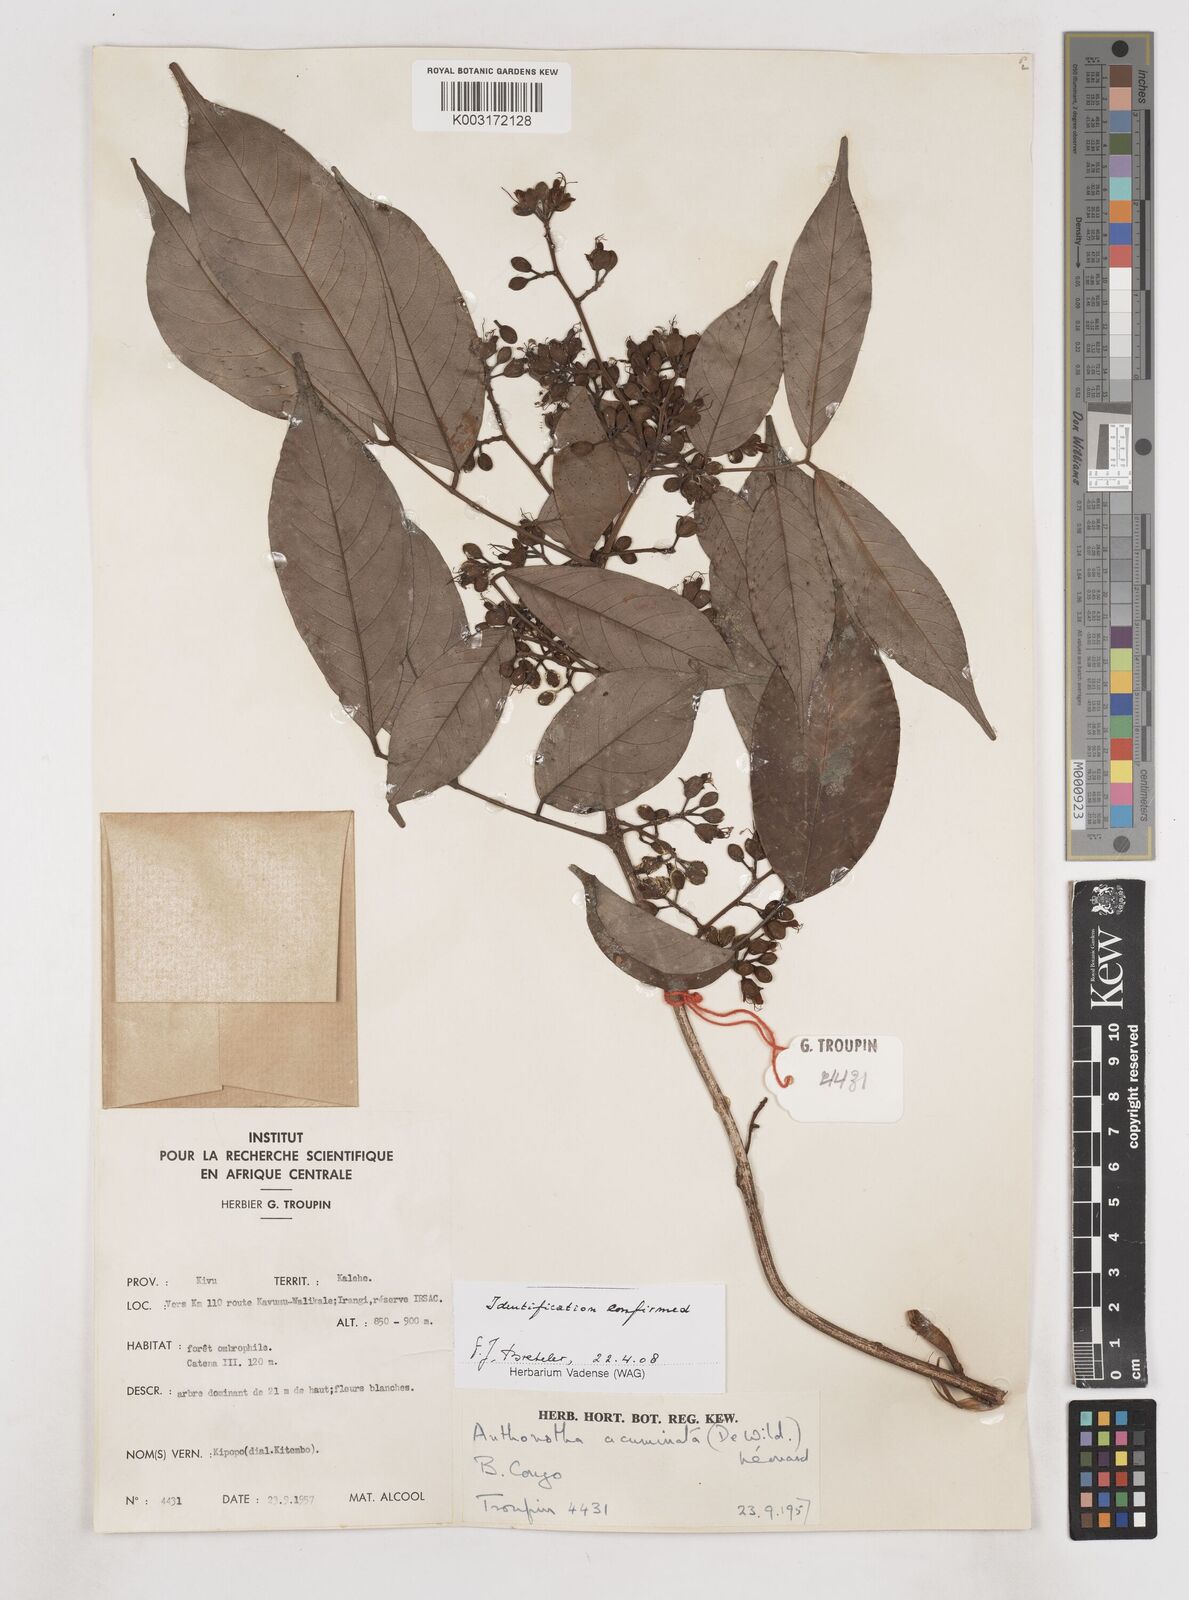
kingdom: Plantae
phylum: Tracheophyta
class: Magnoliopsida
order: Fabales
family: Fabaceae
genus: Anthonotha
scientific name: Anthonotha acuminata
